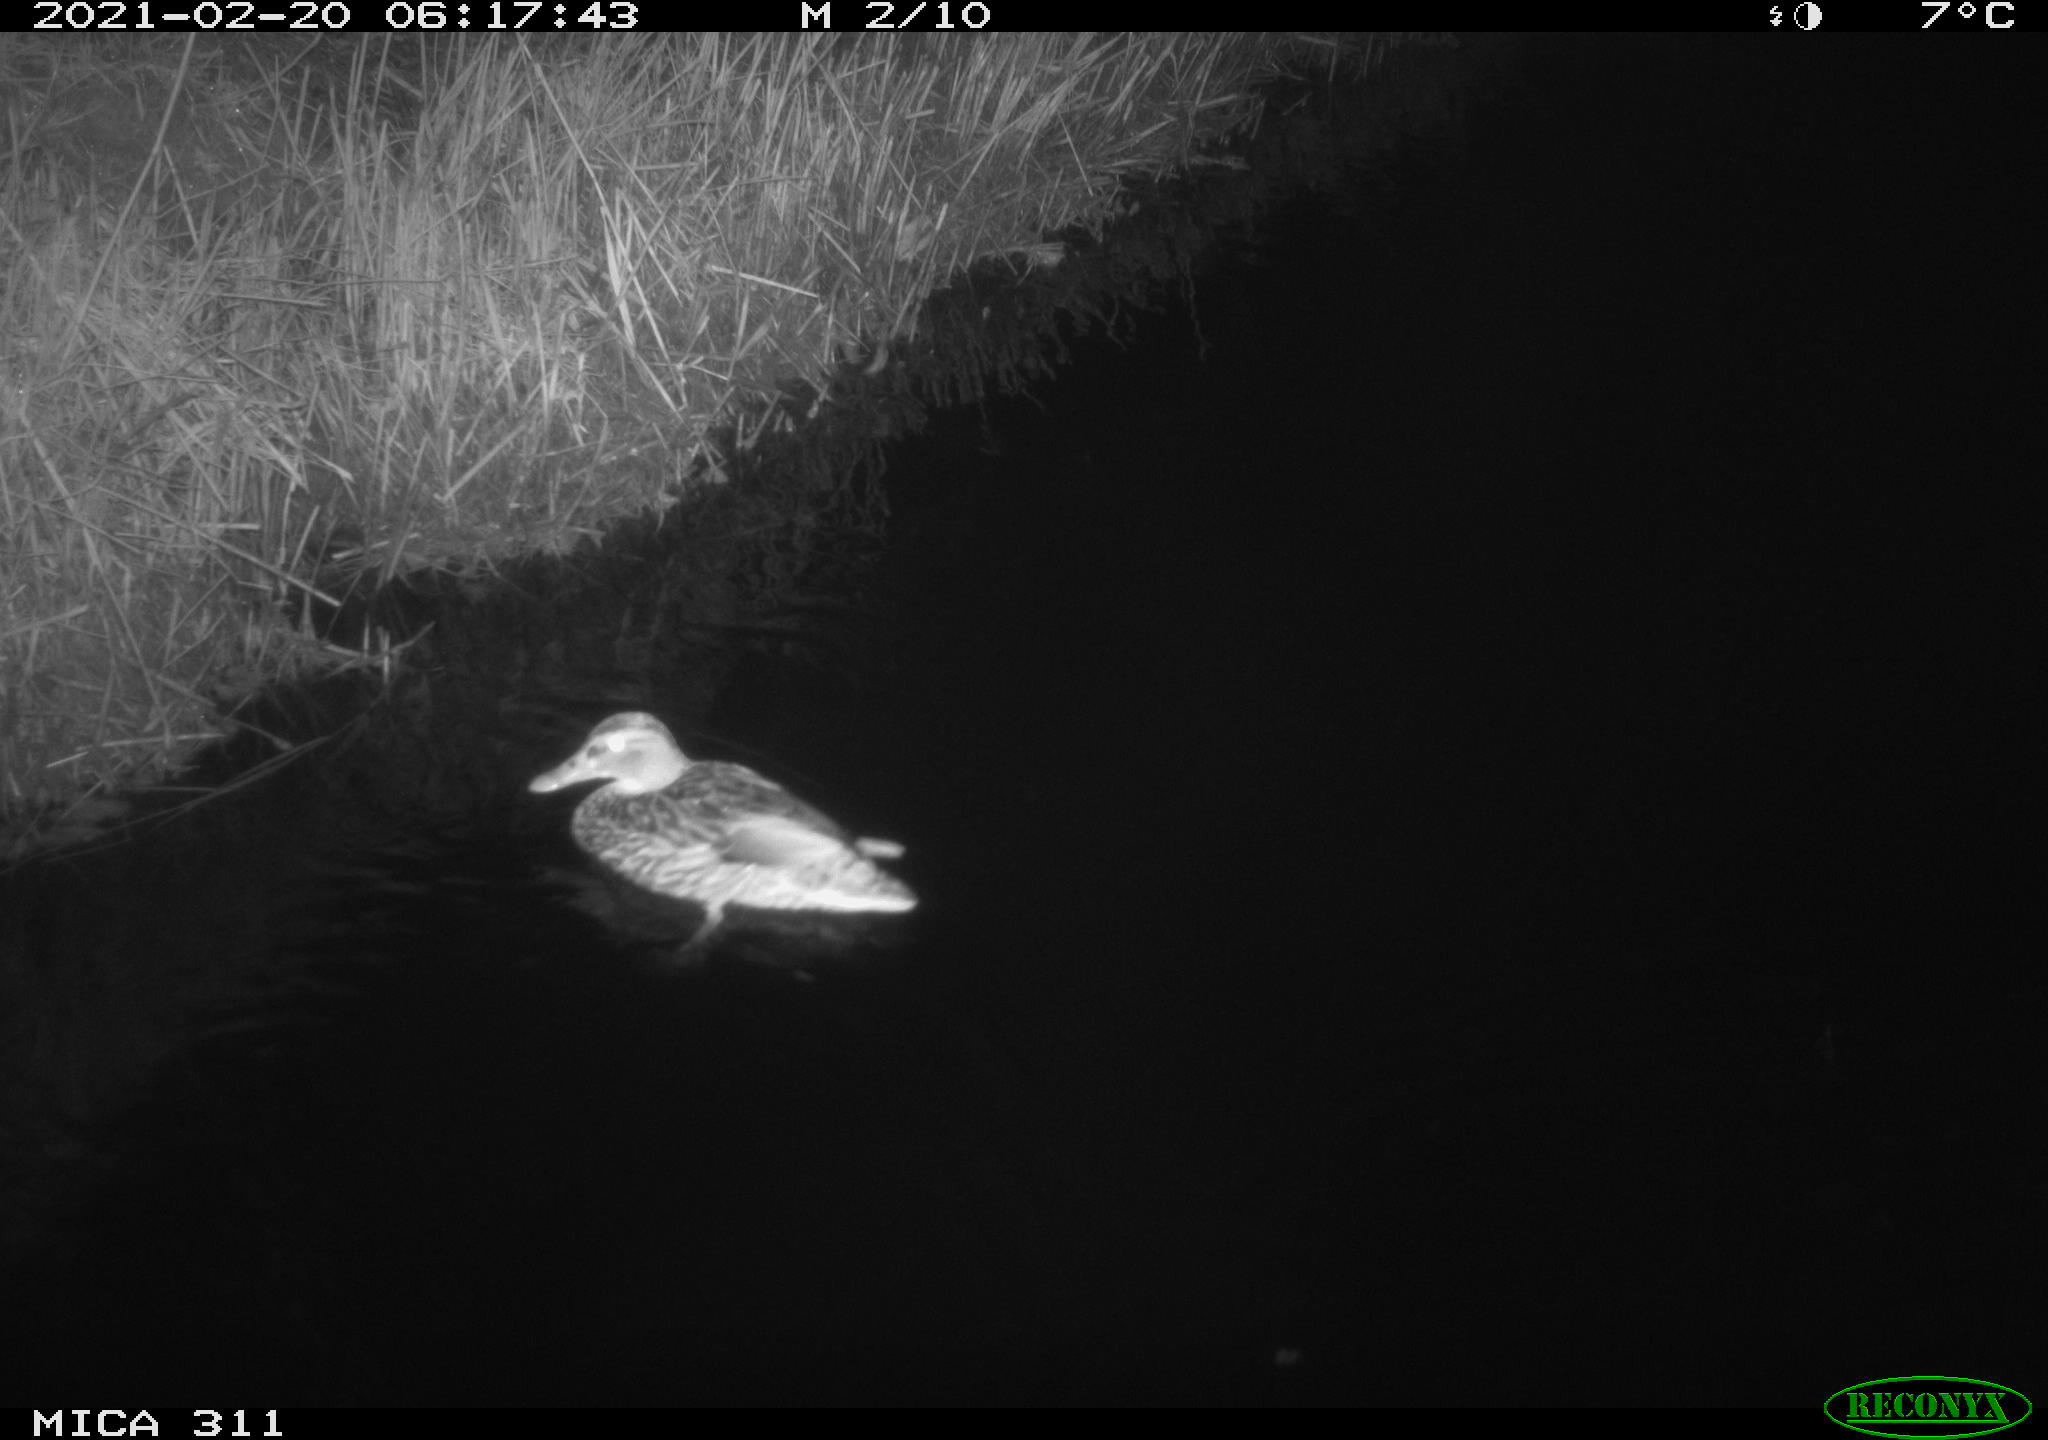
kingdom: Animalia
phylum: Chordata
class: Aves
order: Anseriformes
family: Anatidae
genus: Anas
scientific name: Anas
